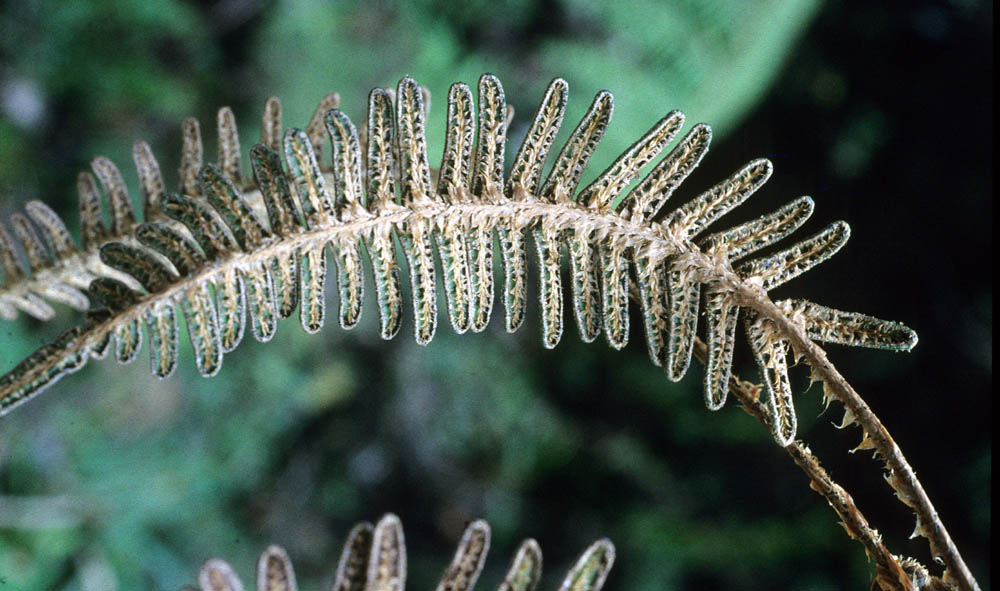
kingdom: Plantae
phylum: Tracheophyta
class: Polypodiopsida
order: Polypodiales
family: Blechnaceae
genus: Blechnum
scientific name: Blechnum
